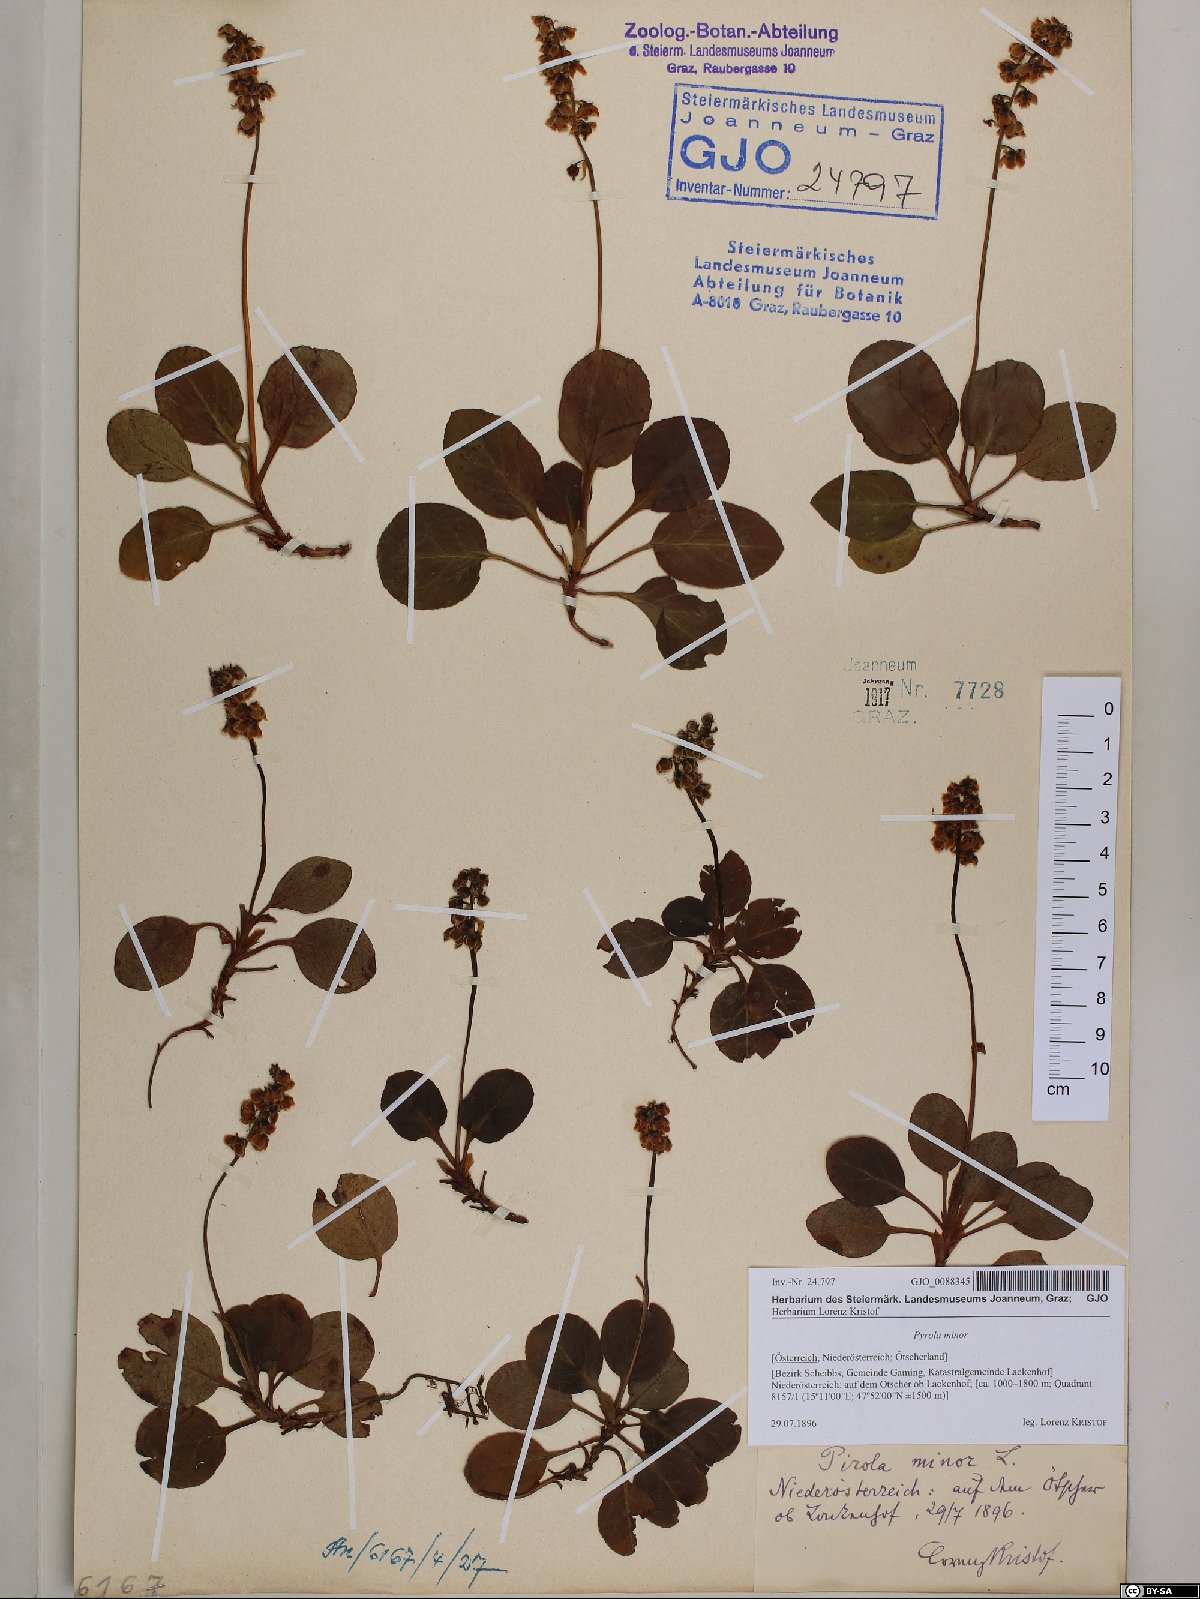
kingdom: Plantae
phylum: Tracheophyta
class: Magnoliopsida
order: Ericales
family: Ericaceae
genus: Pyrola
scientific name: Pyrola minor
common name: Common wintergreen
